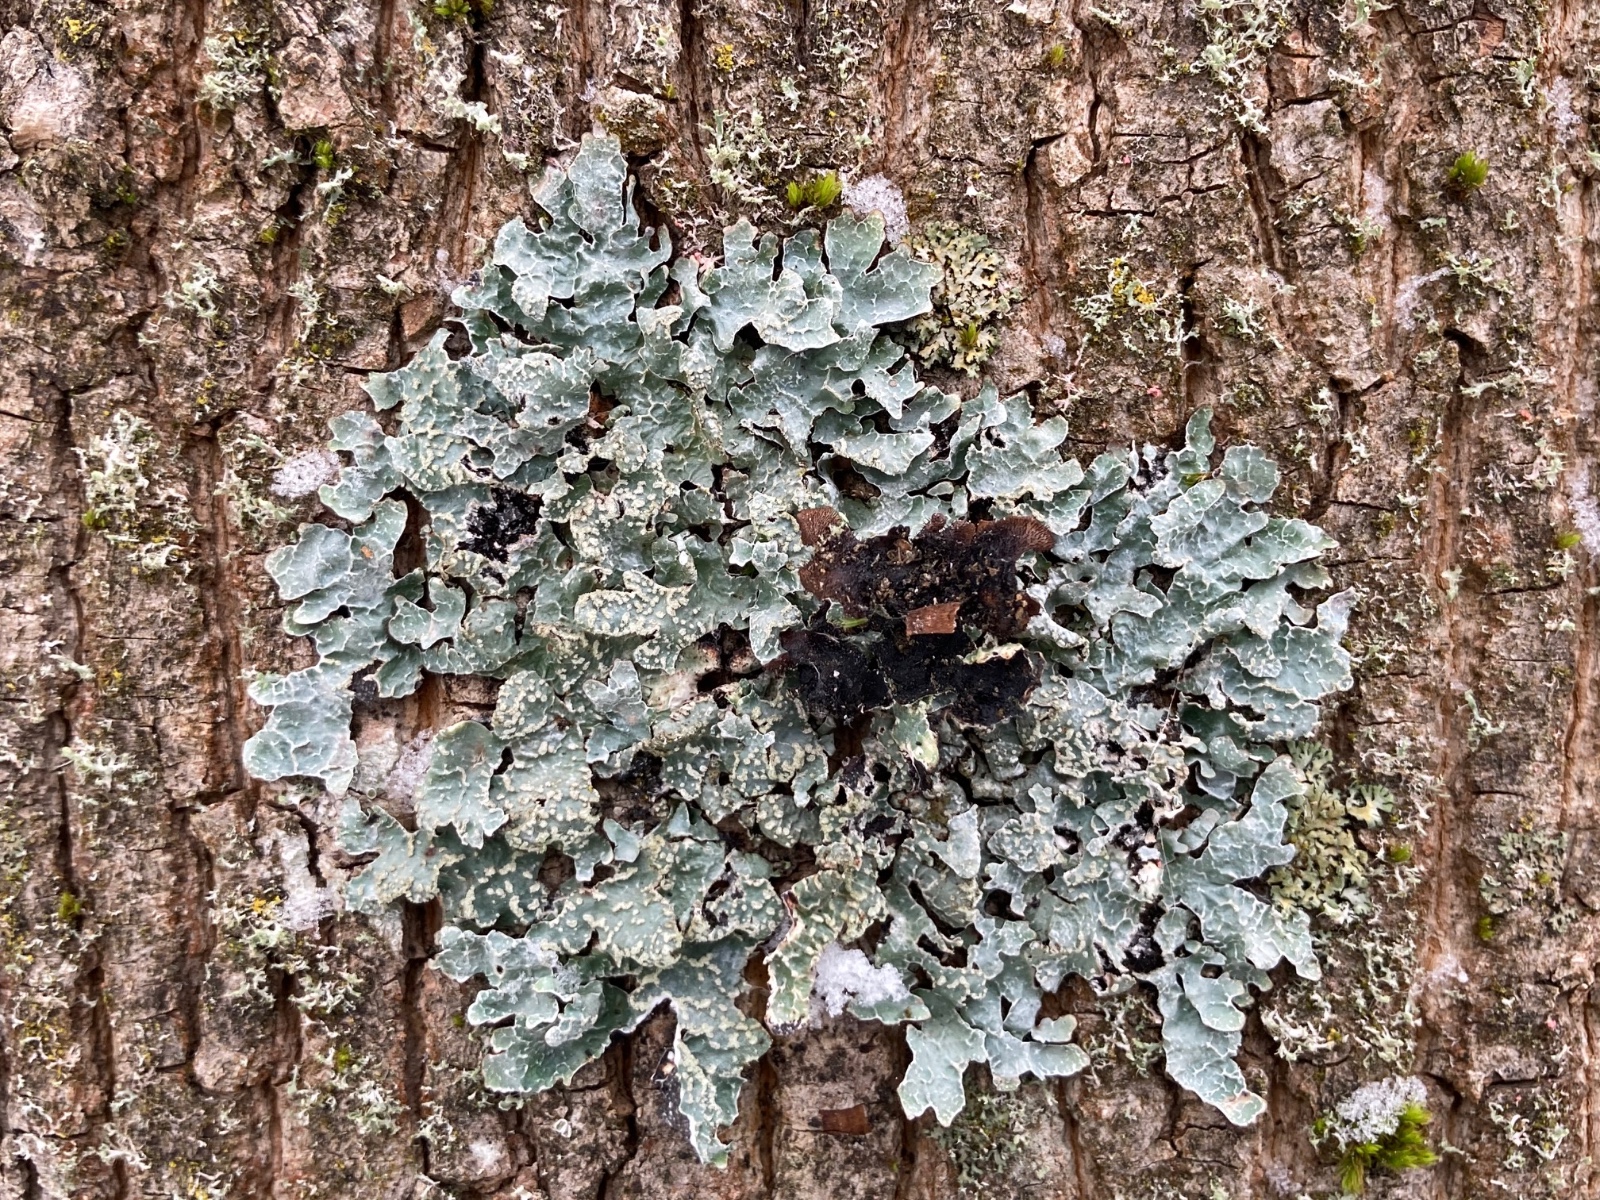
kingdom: Fungi
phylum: Ascomycota
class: Lecanoromycetes
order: Lecanorales
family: Parmeliaceae
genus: Parmelia
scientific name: Parmelia sulcata
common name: rynket skållav
